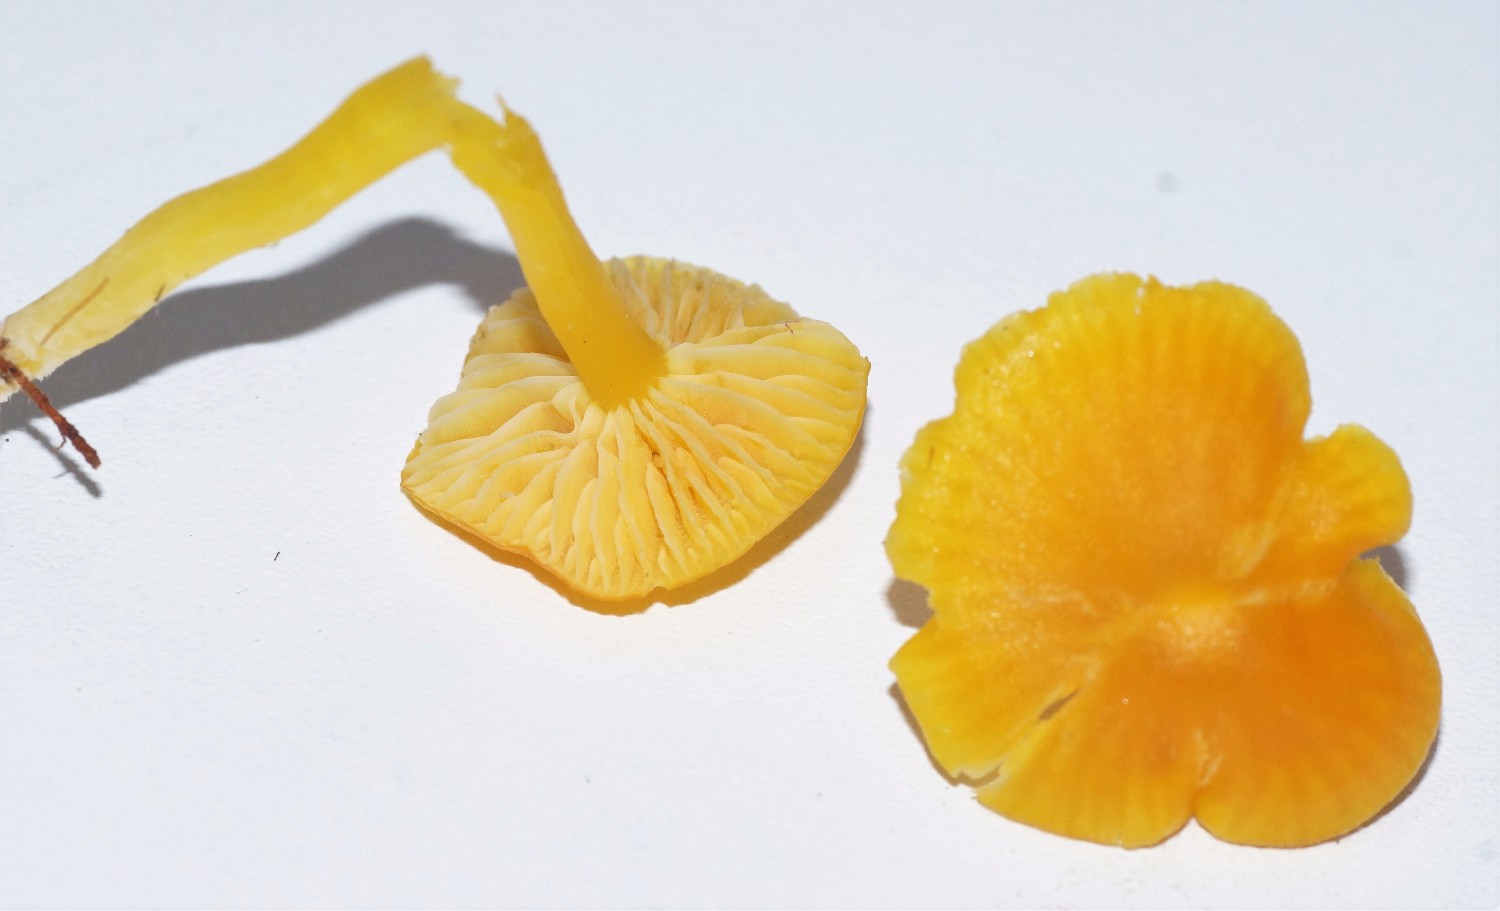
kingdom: Fungi
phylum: Basidiomycota
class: Agaricomycetes
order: Agaricales
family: Hygrophoraceae
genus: Hygrocybe
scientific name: Hygrocybe ceracea
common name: voksgul vokshat
